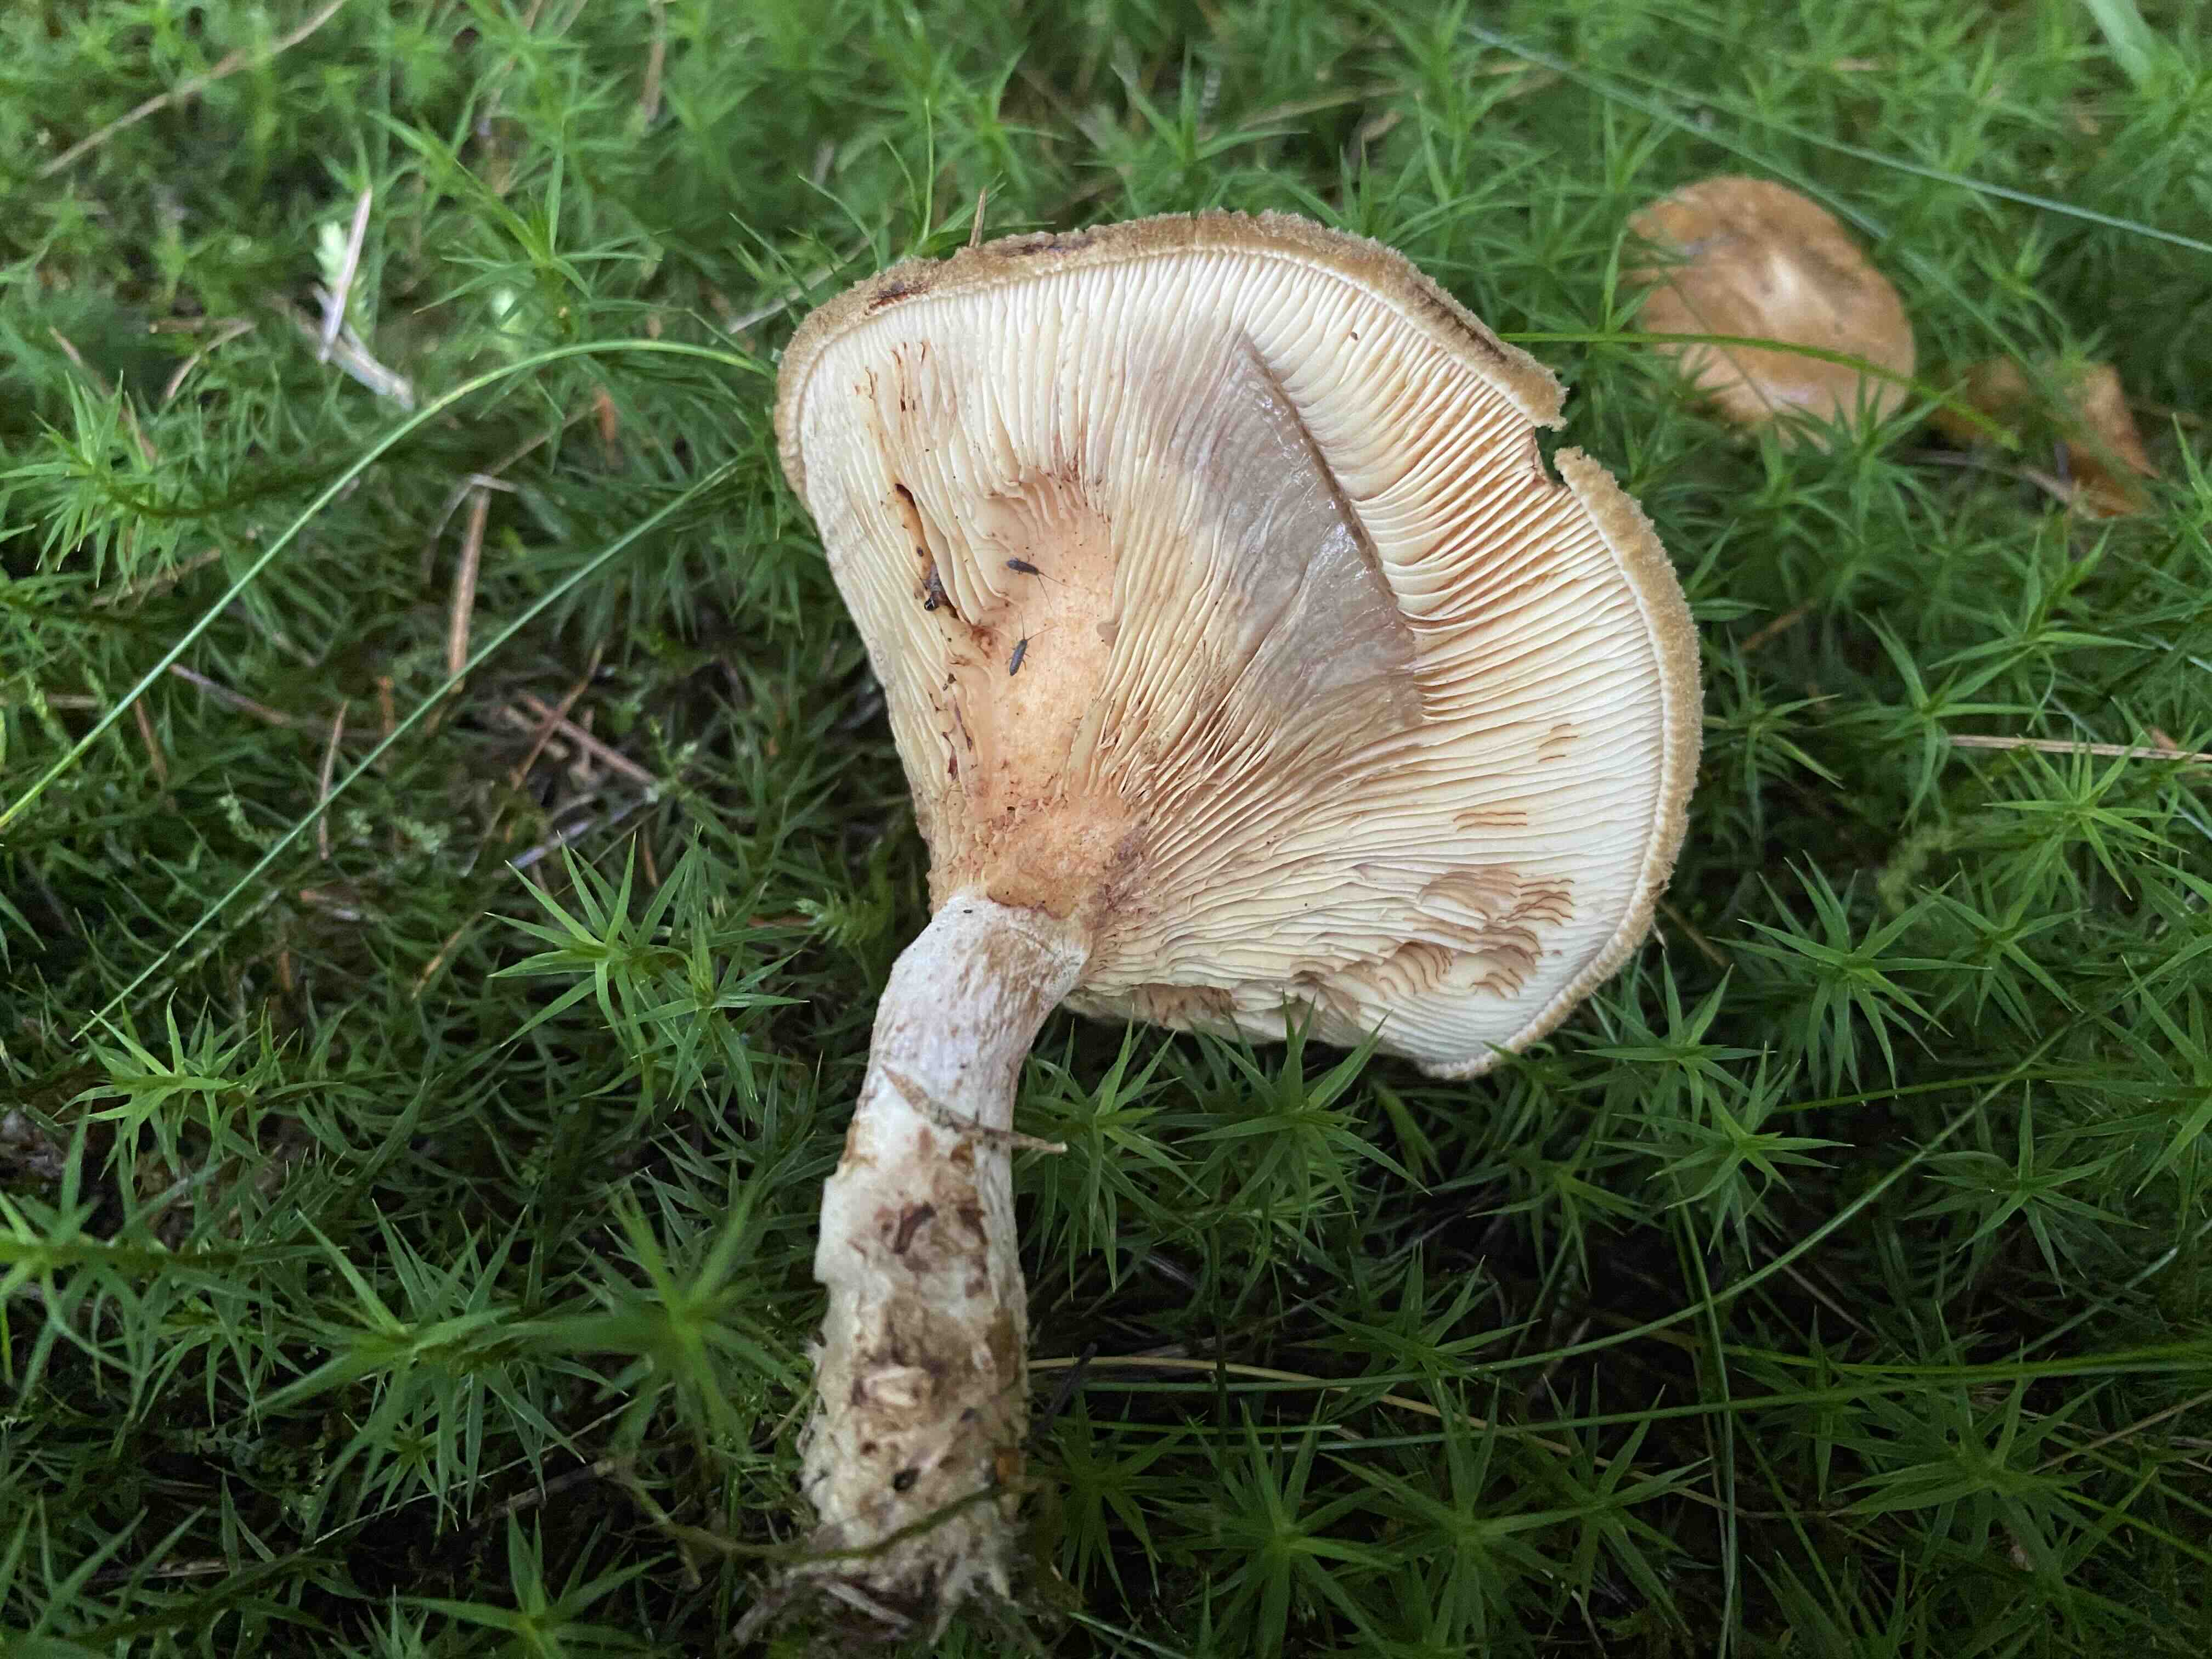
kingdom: Fungi
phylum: Basidiomycota
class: Agaricomycetes
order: Boletales
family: Paxillaceae
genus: Paxillus
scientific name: Paxillus involutus
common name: almindelig netbladhat
